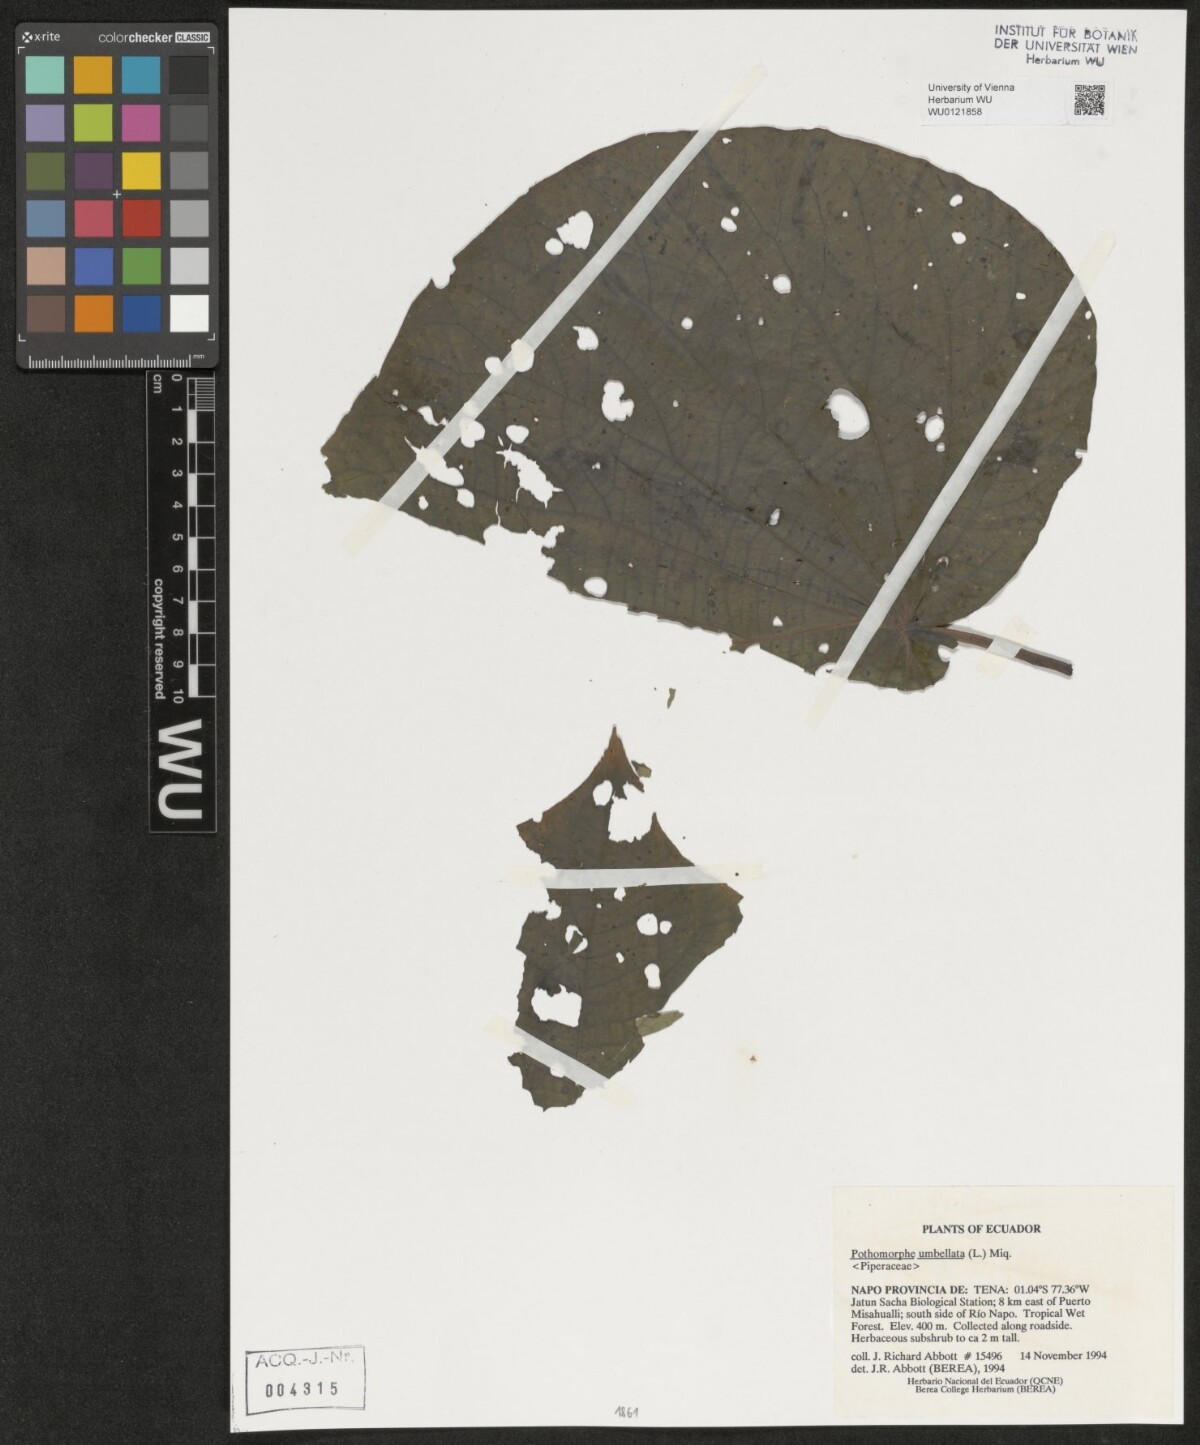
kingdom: Plantae
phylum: Tracheophyta
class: Magnoliopsida
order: Piperales
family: Piperaceae
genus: Piper
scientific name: Piper umbellatum
